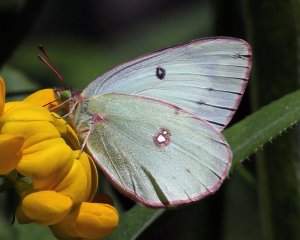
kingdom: Animalia
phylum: Arthropoda
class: Insecta
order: Lepidoptera
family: Pieridae
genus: Colias
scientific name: Colias philodice
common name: Clouded Sulphur
